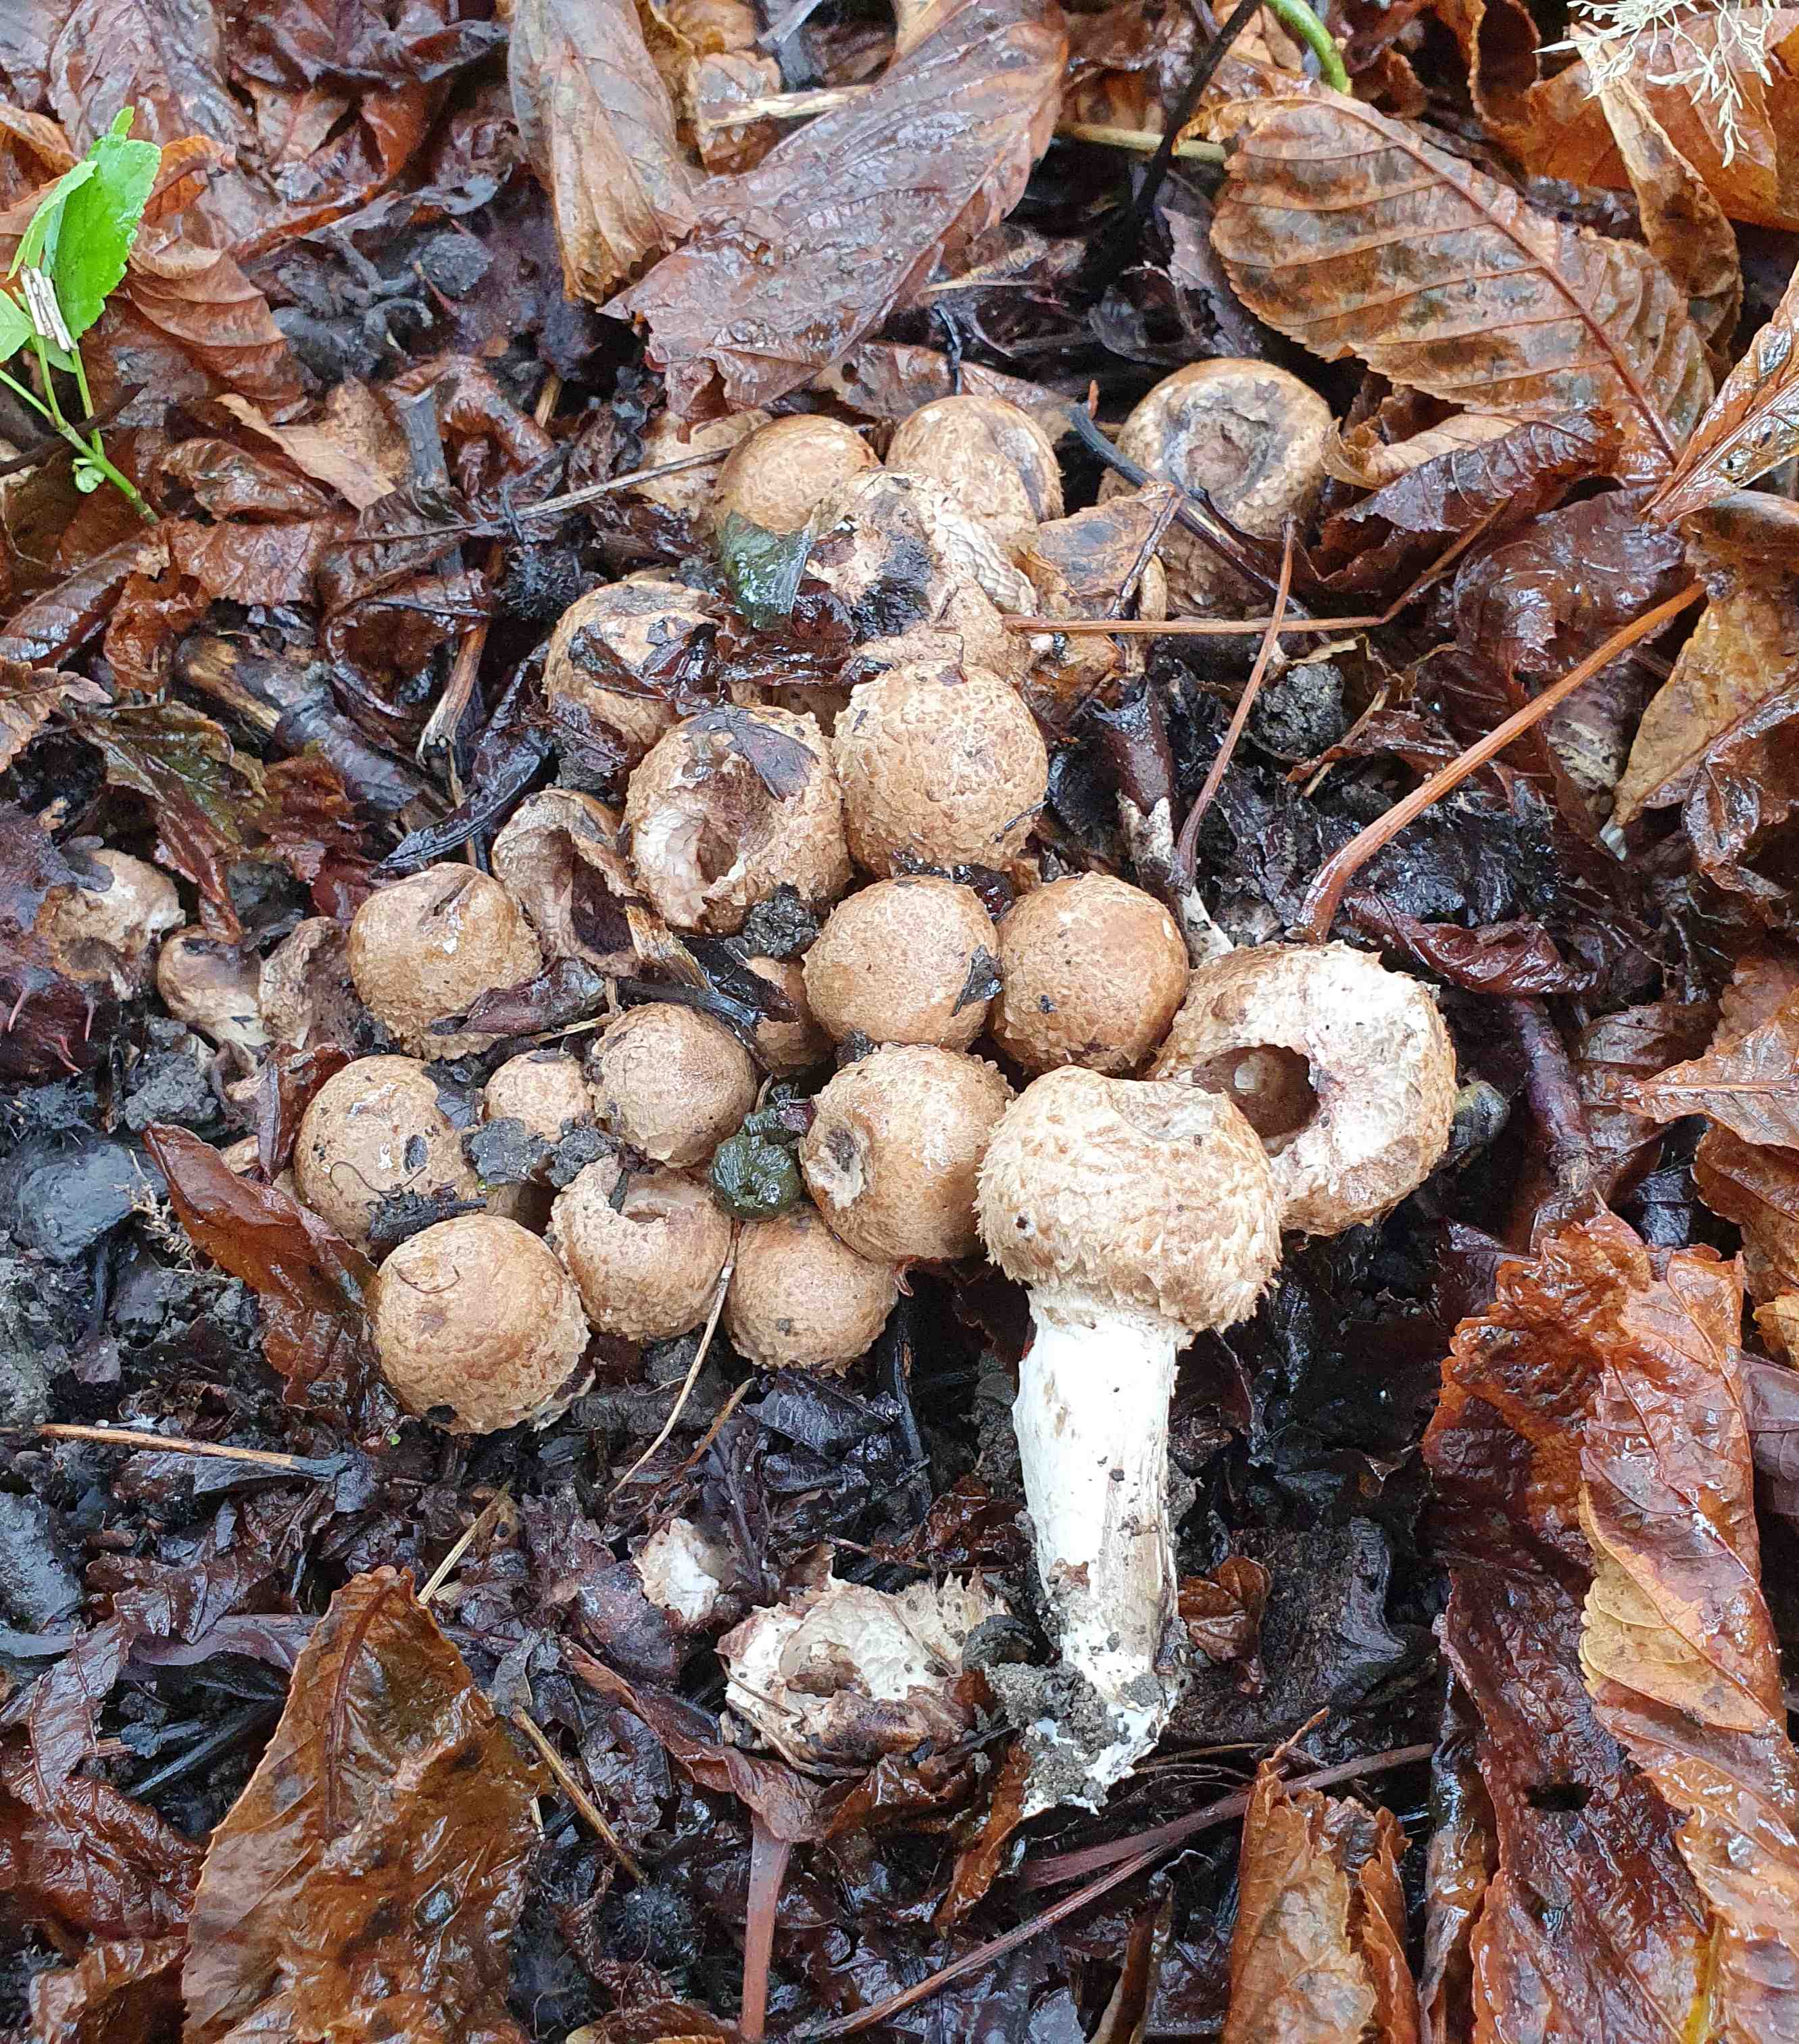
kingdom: Fungi
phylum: Basidiomycota
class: Agaricomycetes
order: Agaricales
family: Agaricaceae
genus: Agaricus
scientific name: Agaricus bohusii
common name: krumskællet champignon
